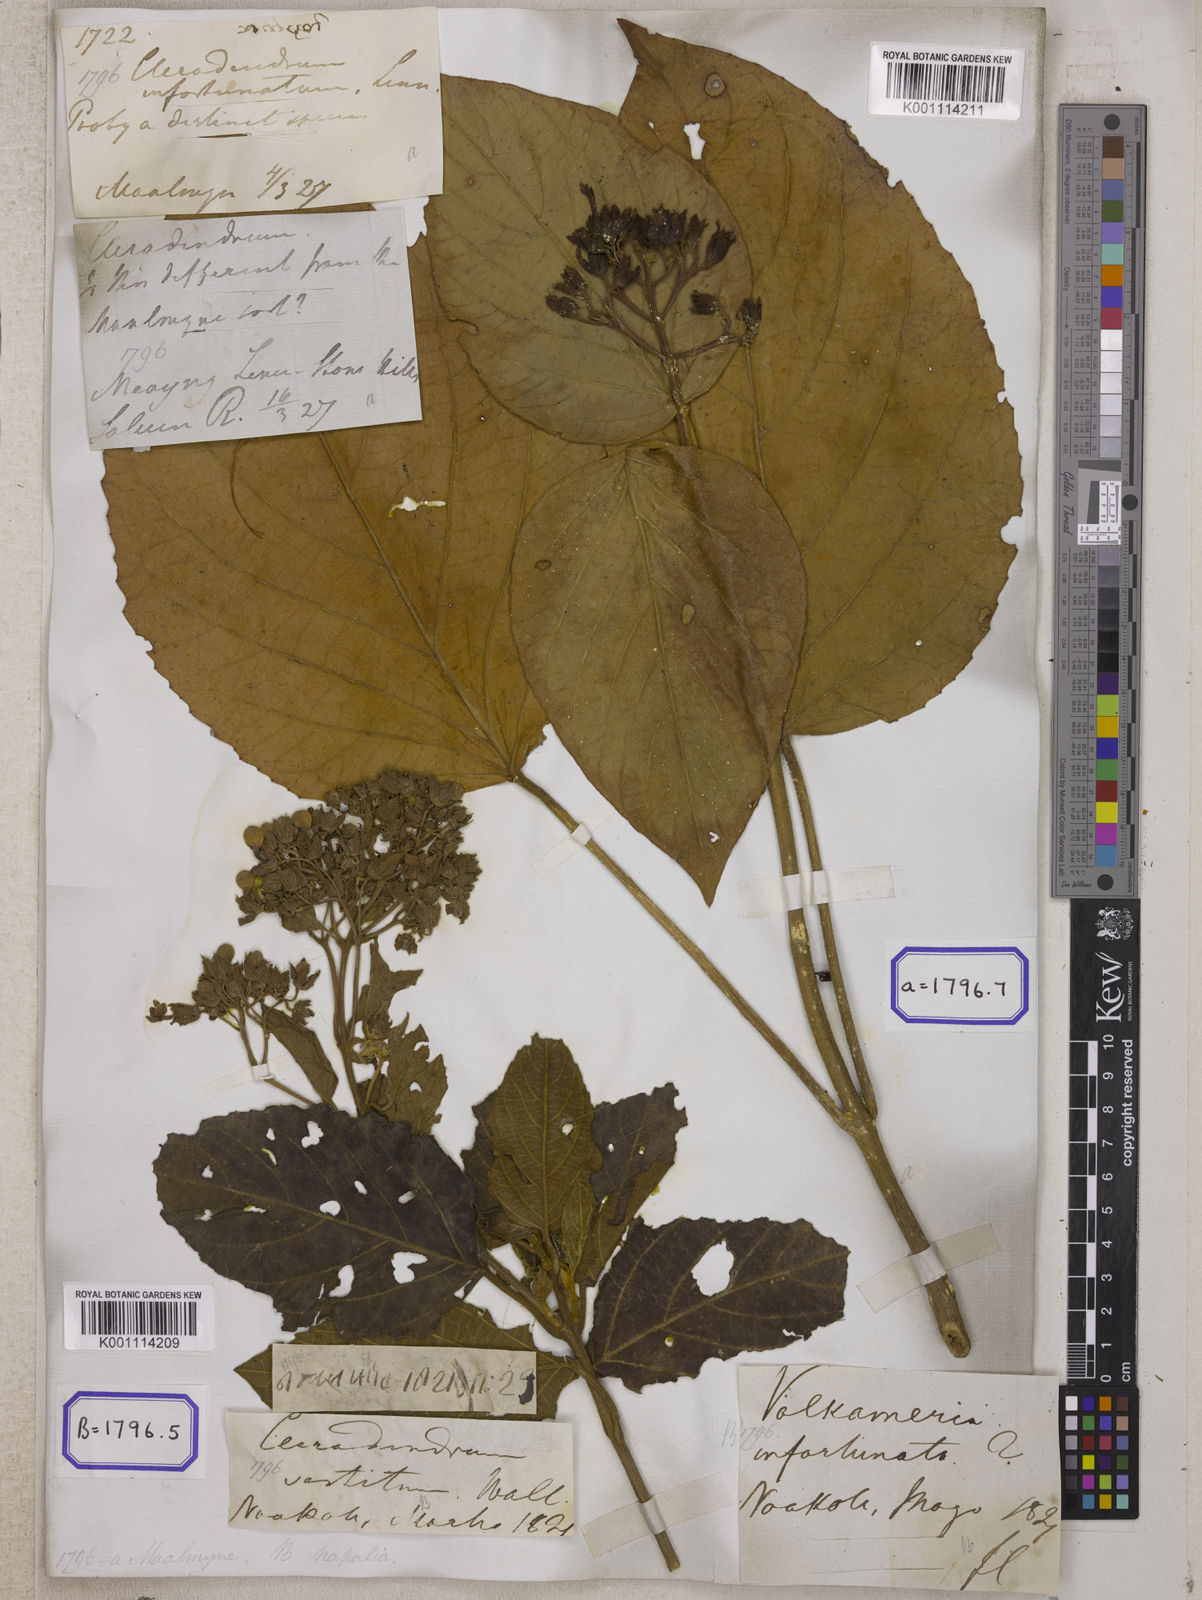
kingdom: Plantae
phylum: Tracheophyta
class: Magnoliopsida
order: Lamiales
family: Lamiaceae
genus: Clerodendrum
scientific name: Clerodendrum
